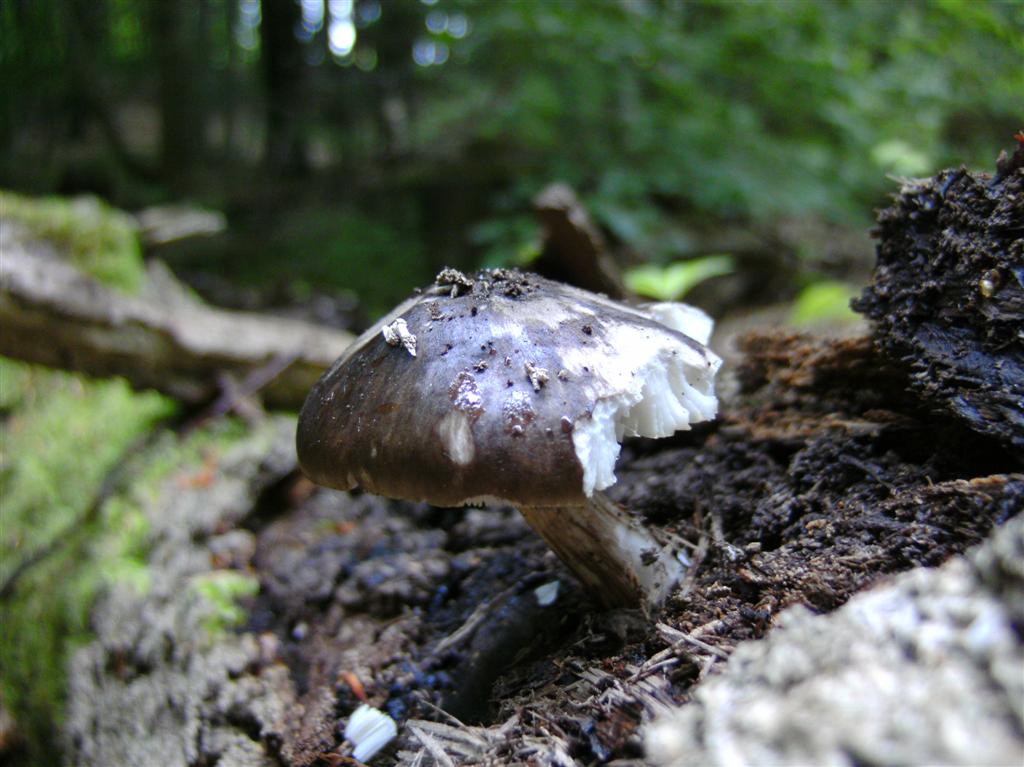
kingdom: Fungi
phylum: Basidiomycota
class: Agaricomycetes
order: Agaricales
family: Pluteaceae
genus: Pluteus
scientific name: Pluteus cervinus
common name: sodfarvet skærmhat
